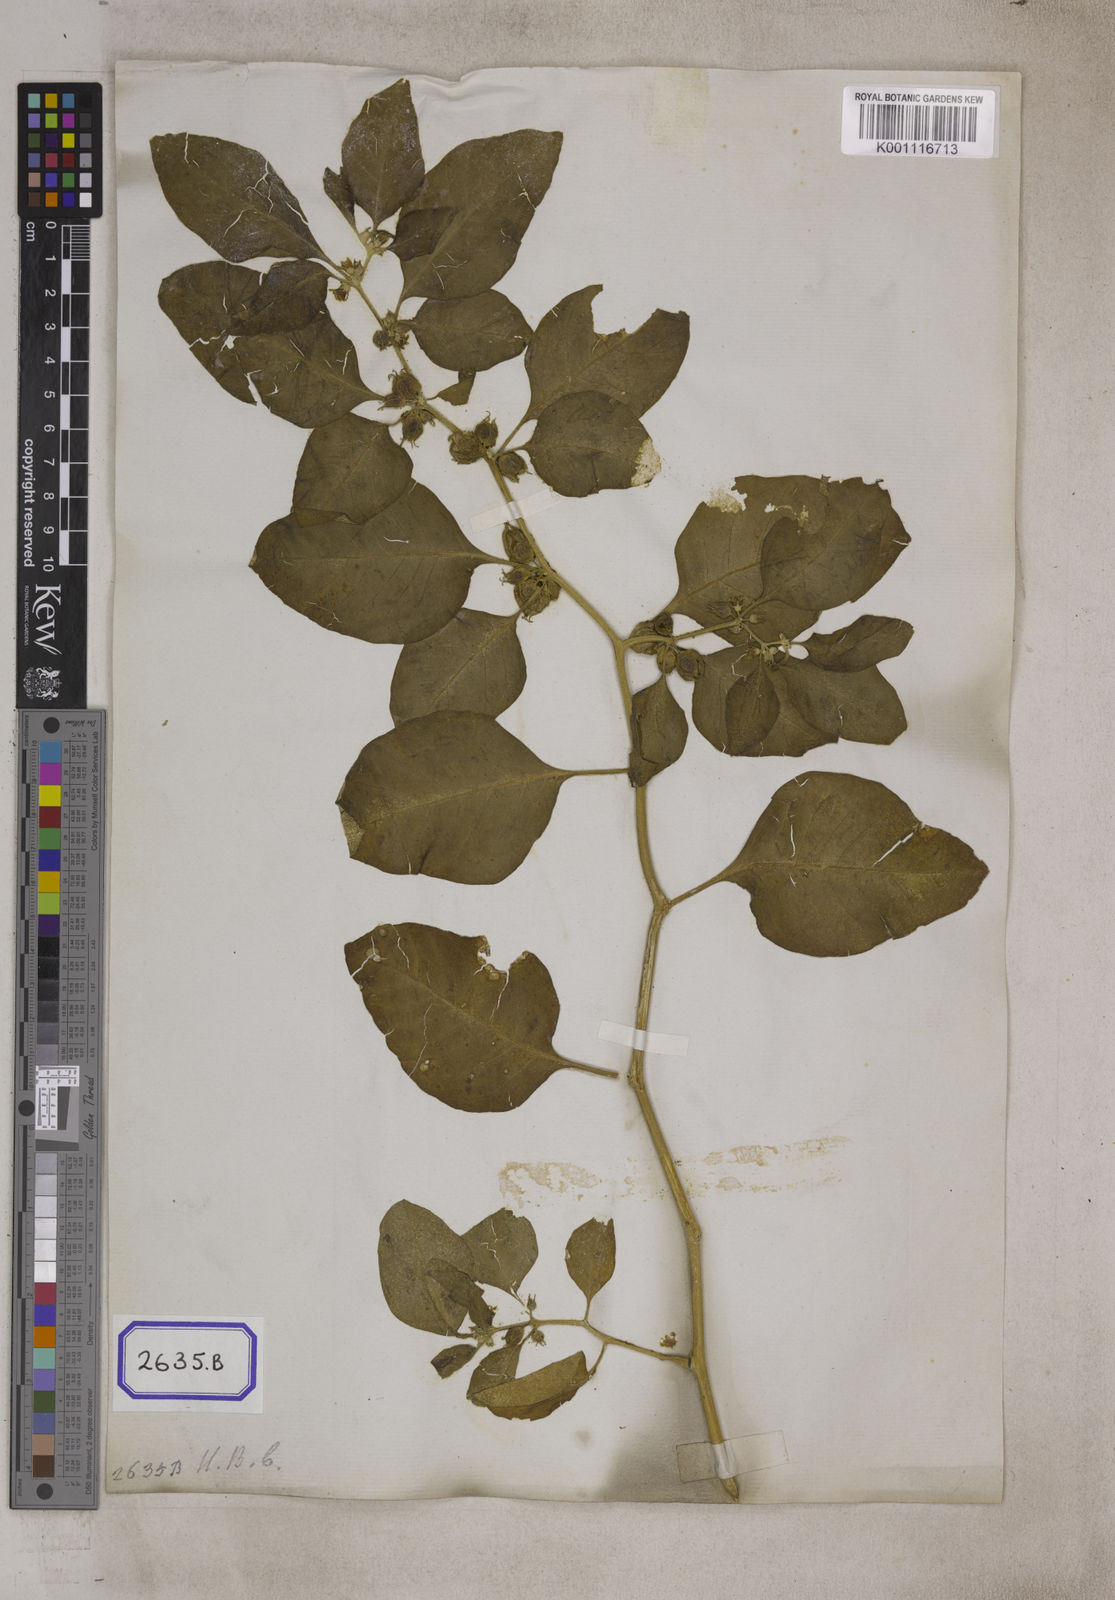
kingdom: Plantae
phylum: Tracheophyta
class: Magnoliopsida
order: Solanales
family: Solanaceae
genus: Withania
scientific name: Withania somnifera
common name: Winter-cherry
